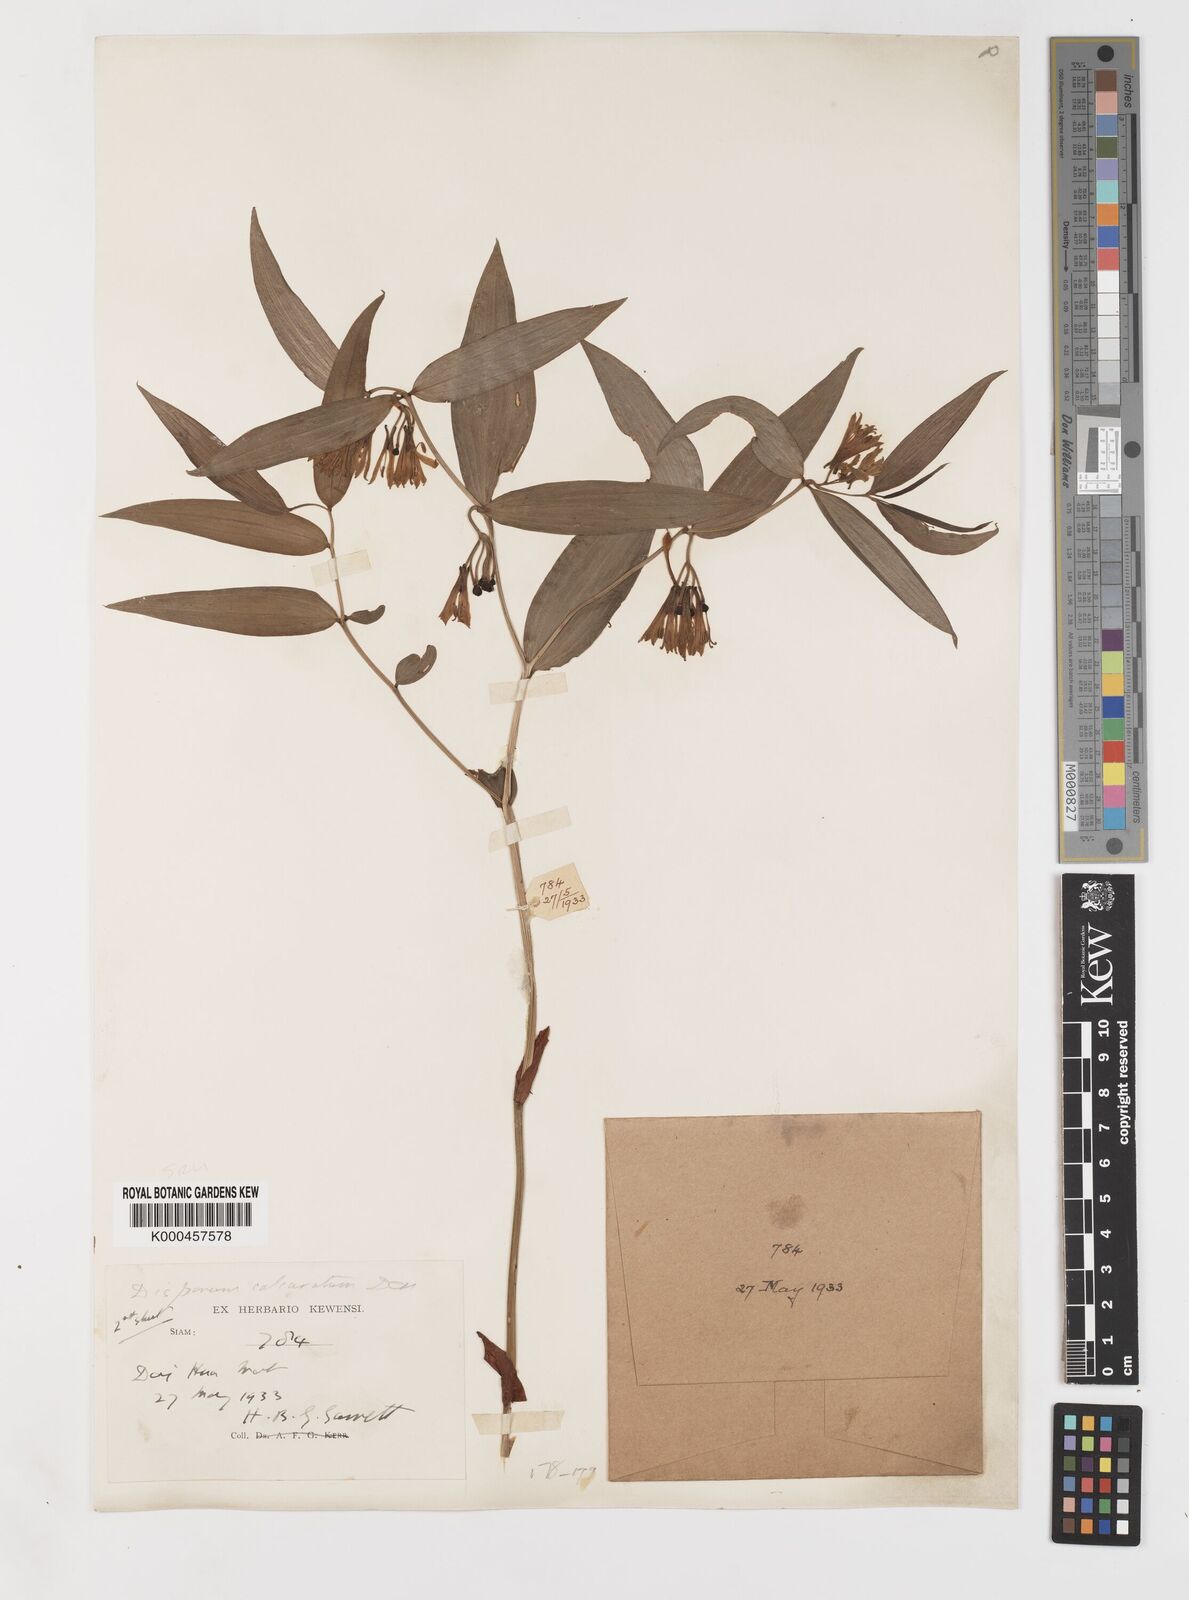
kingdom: Plantae
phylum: Tracheophyta
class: Liliopsida
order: Liliales
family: Colchicaceae
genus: Disporum
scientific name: Disporum calcaratum
